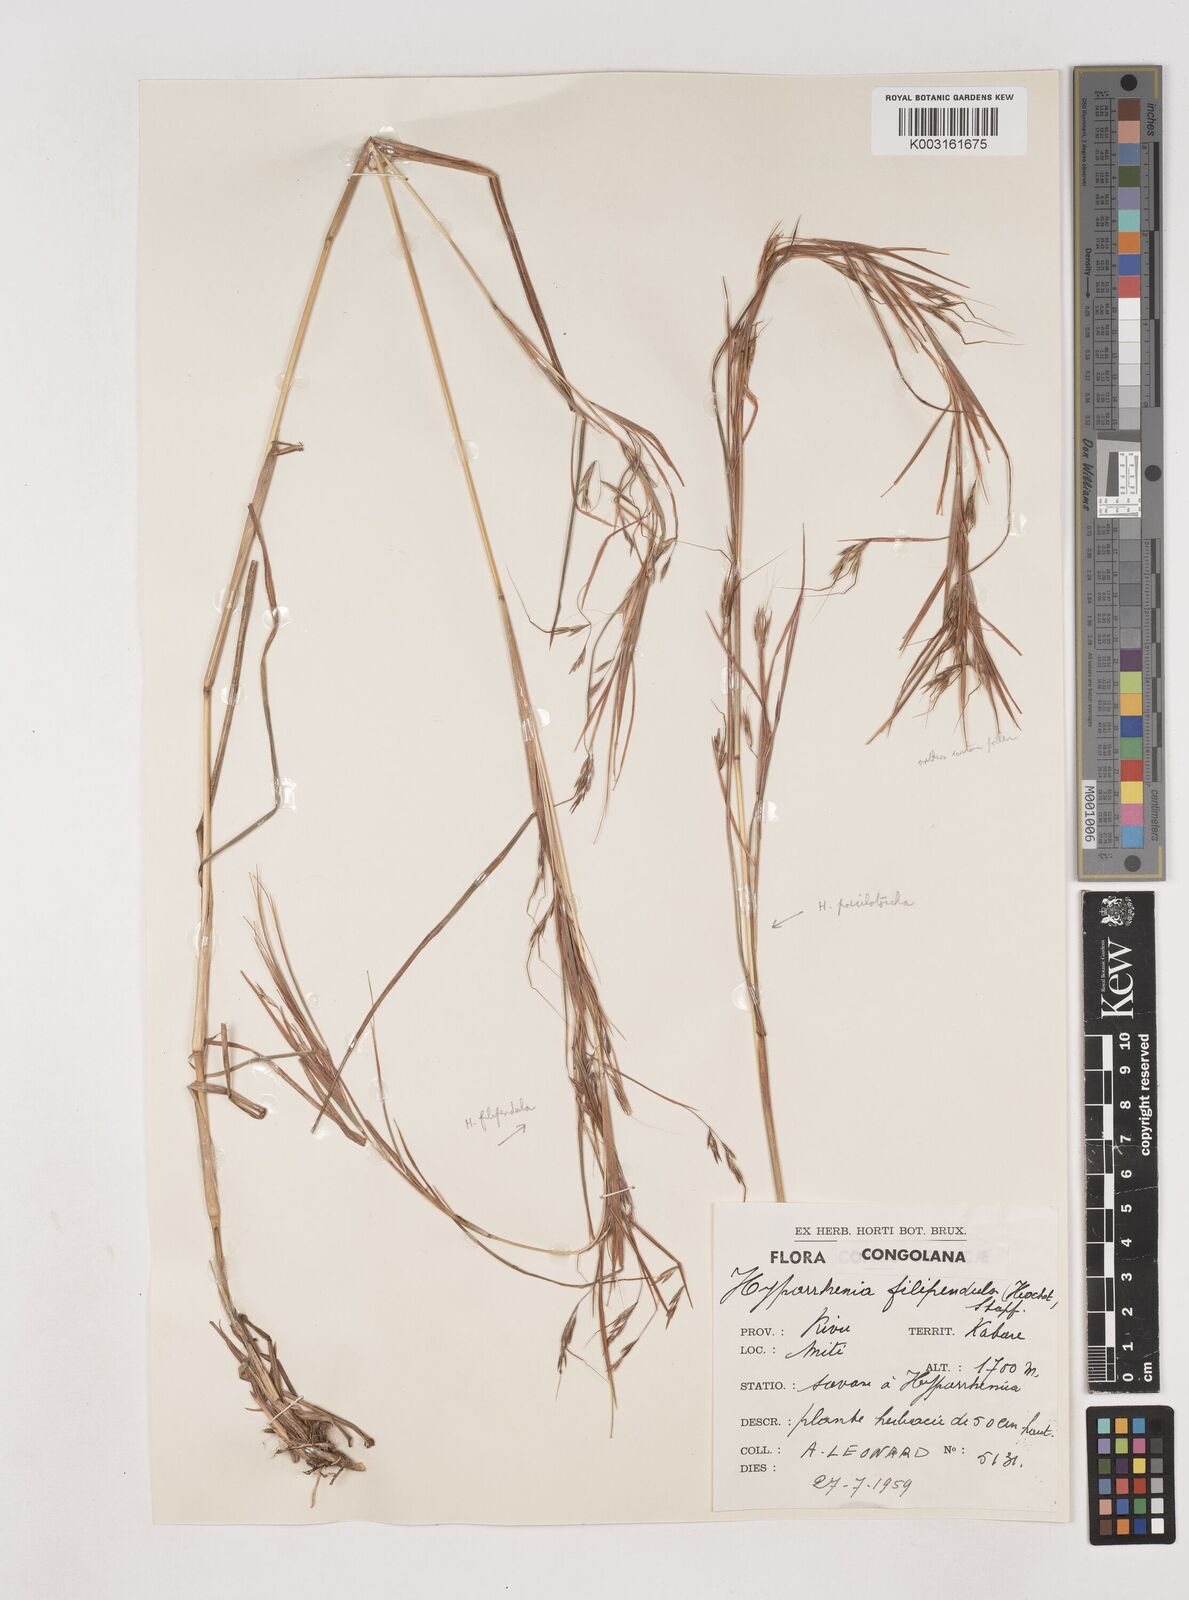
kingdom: Plantae
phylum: Tracheophyta
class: Liliopsida
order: Poales
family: Poaceae
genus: Hyparrhenia
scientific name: Hyparrhenia poecilotricha
